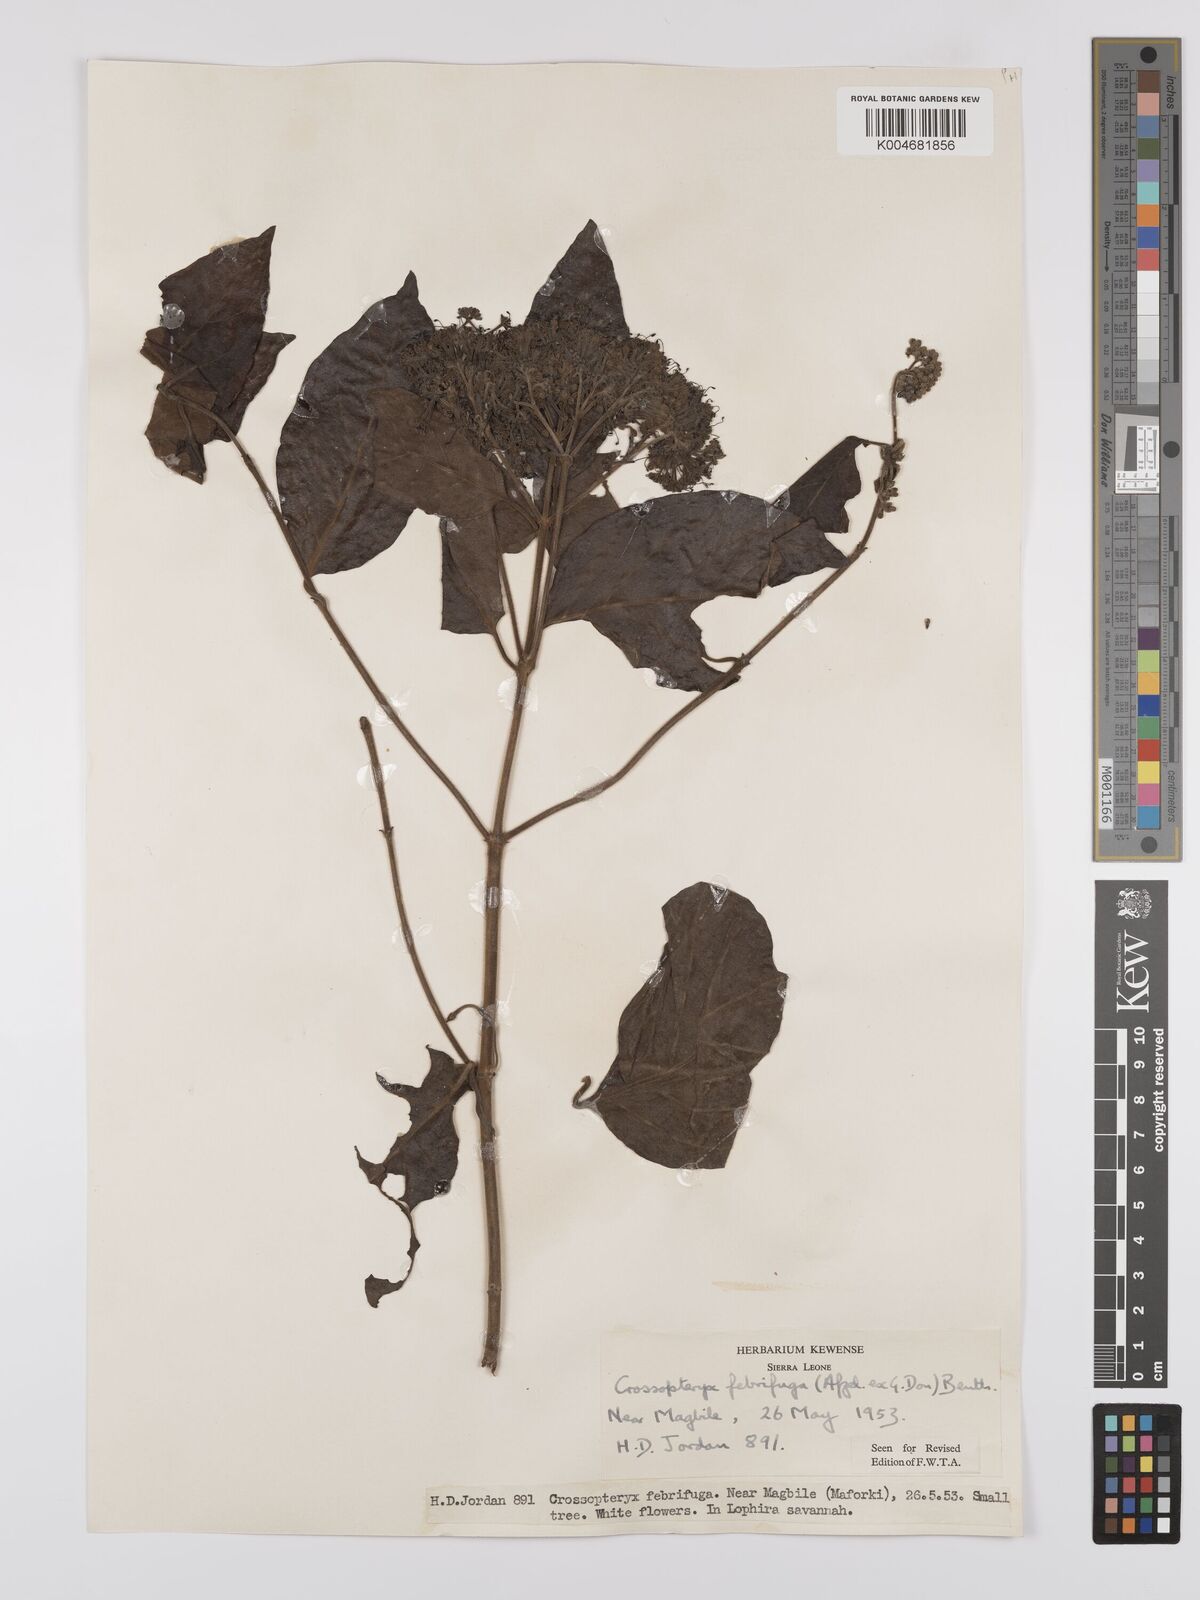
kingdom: Plantae
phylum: Tracheophyta
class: Magnoliopsida
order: Gentianales
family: Rubiaceae
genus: Crossopteryx
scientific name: Crossopteryx febrifuga
